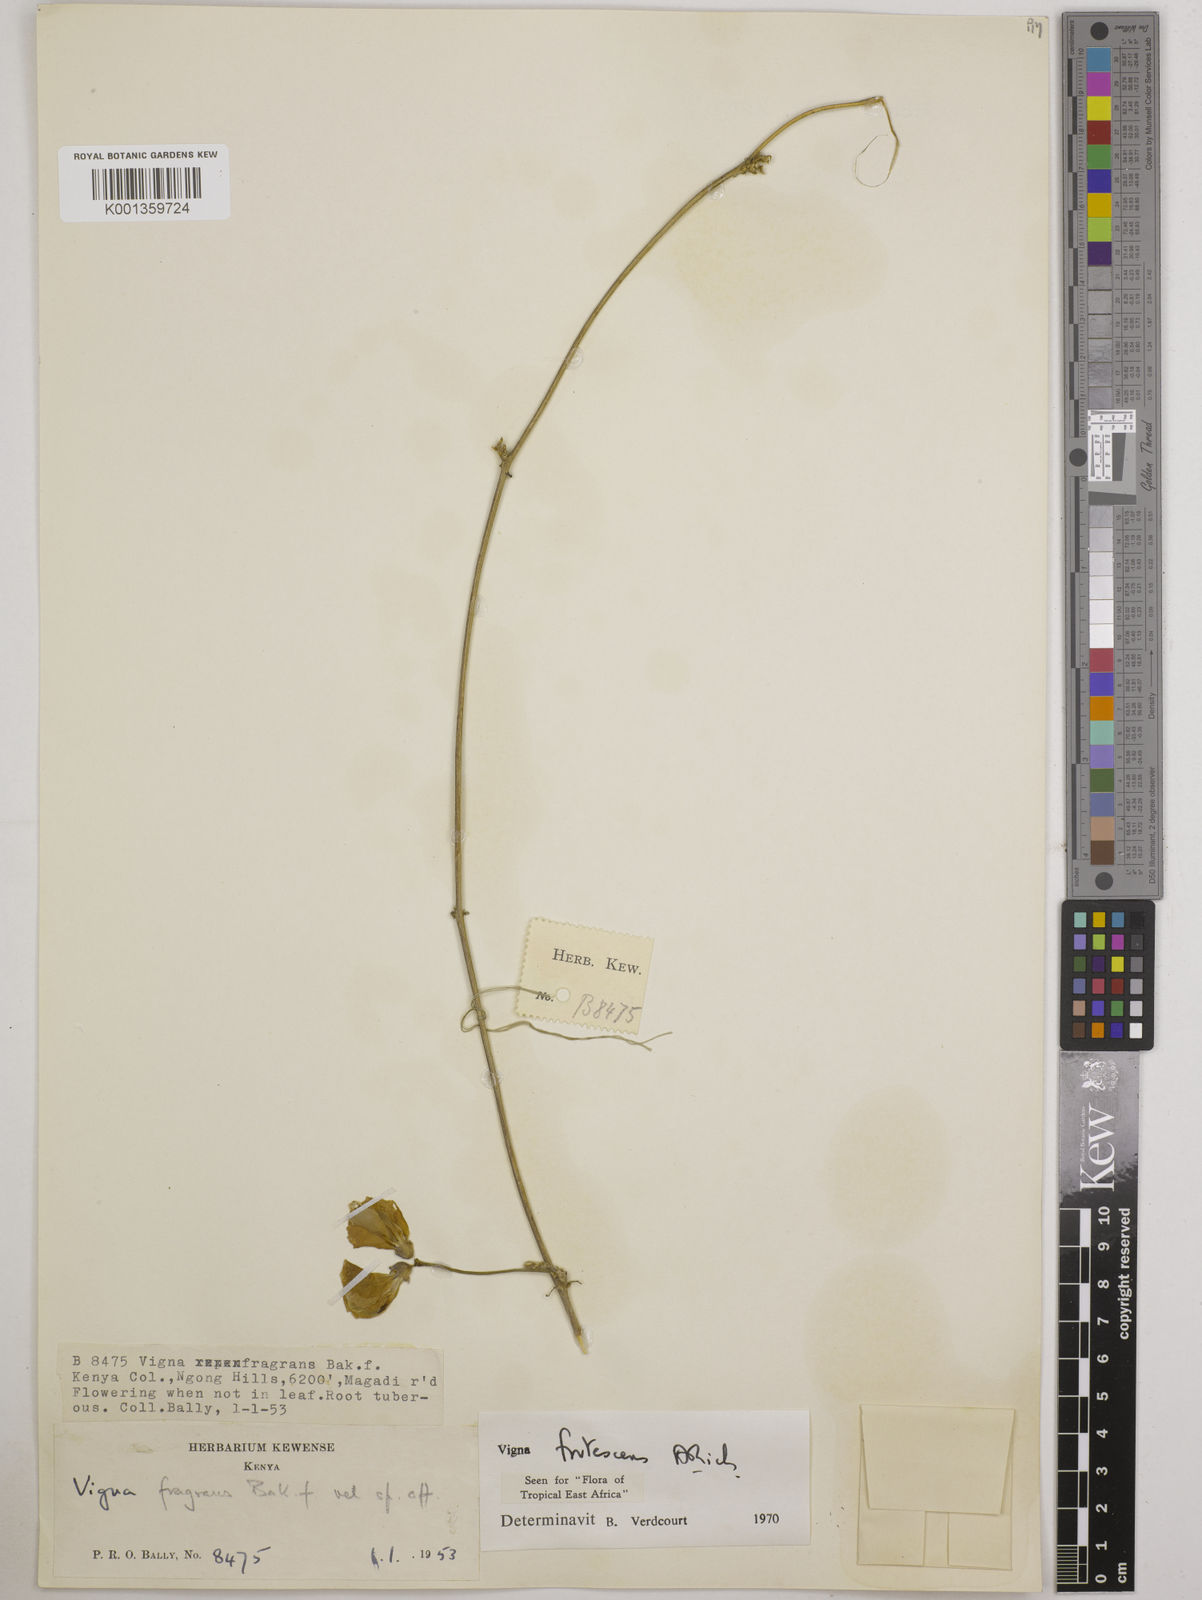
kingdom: Plantae
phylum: Tracheophyta
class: Magnoliopsida
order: Fabales
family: Fabaceae
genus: Vigna
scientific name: Vigna frutescens
